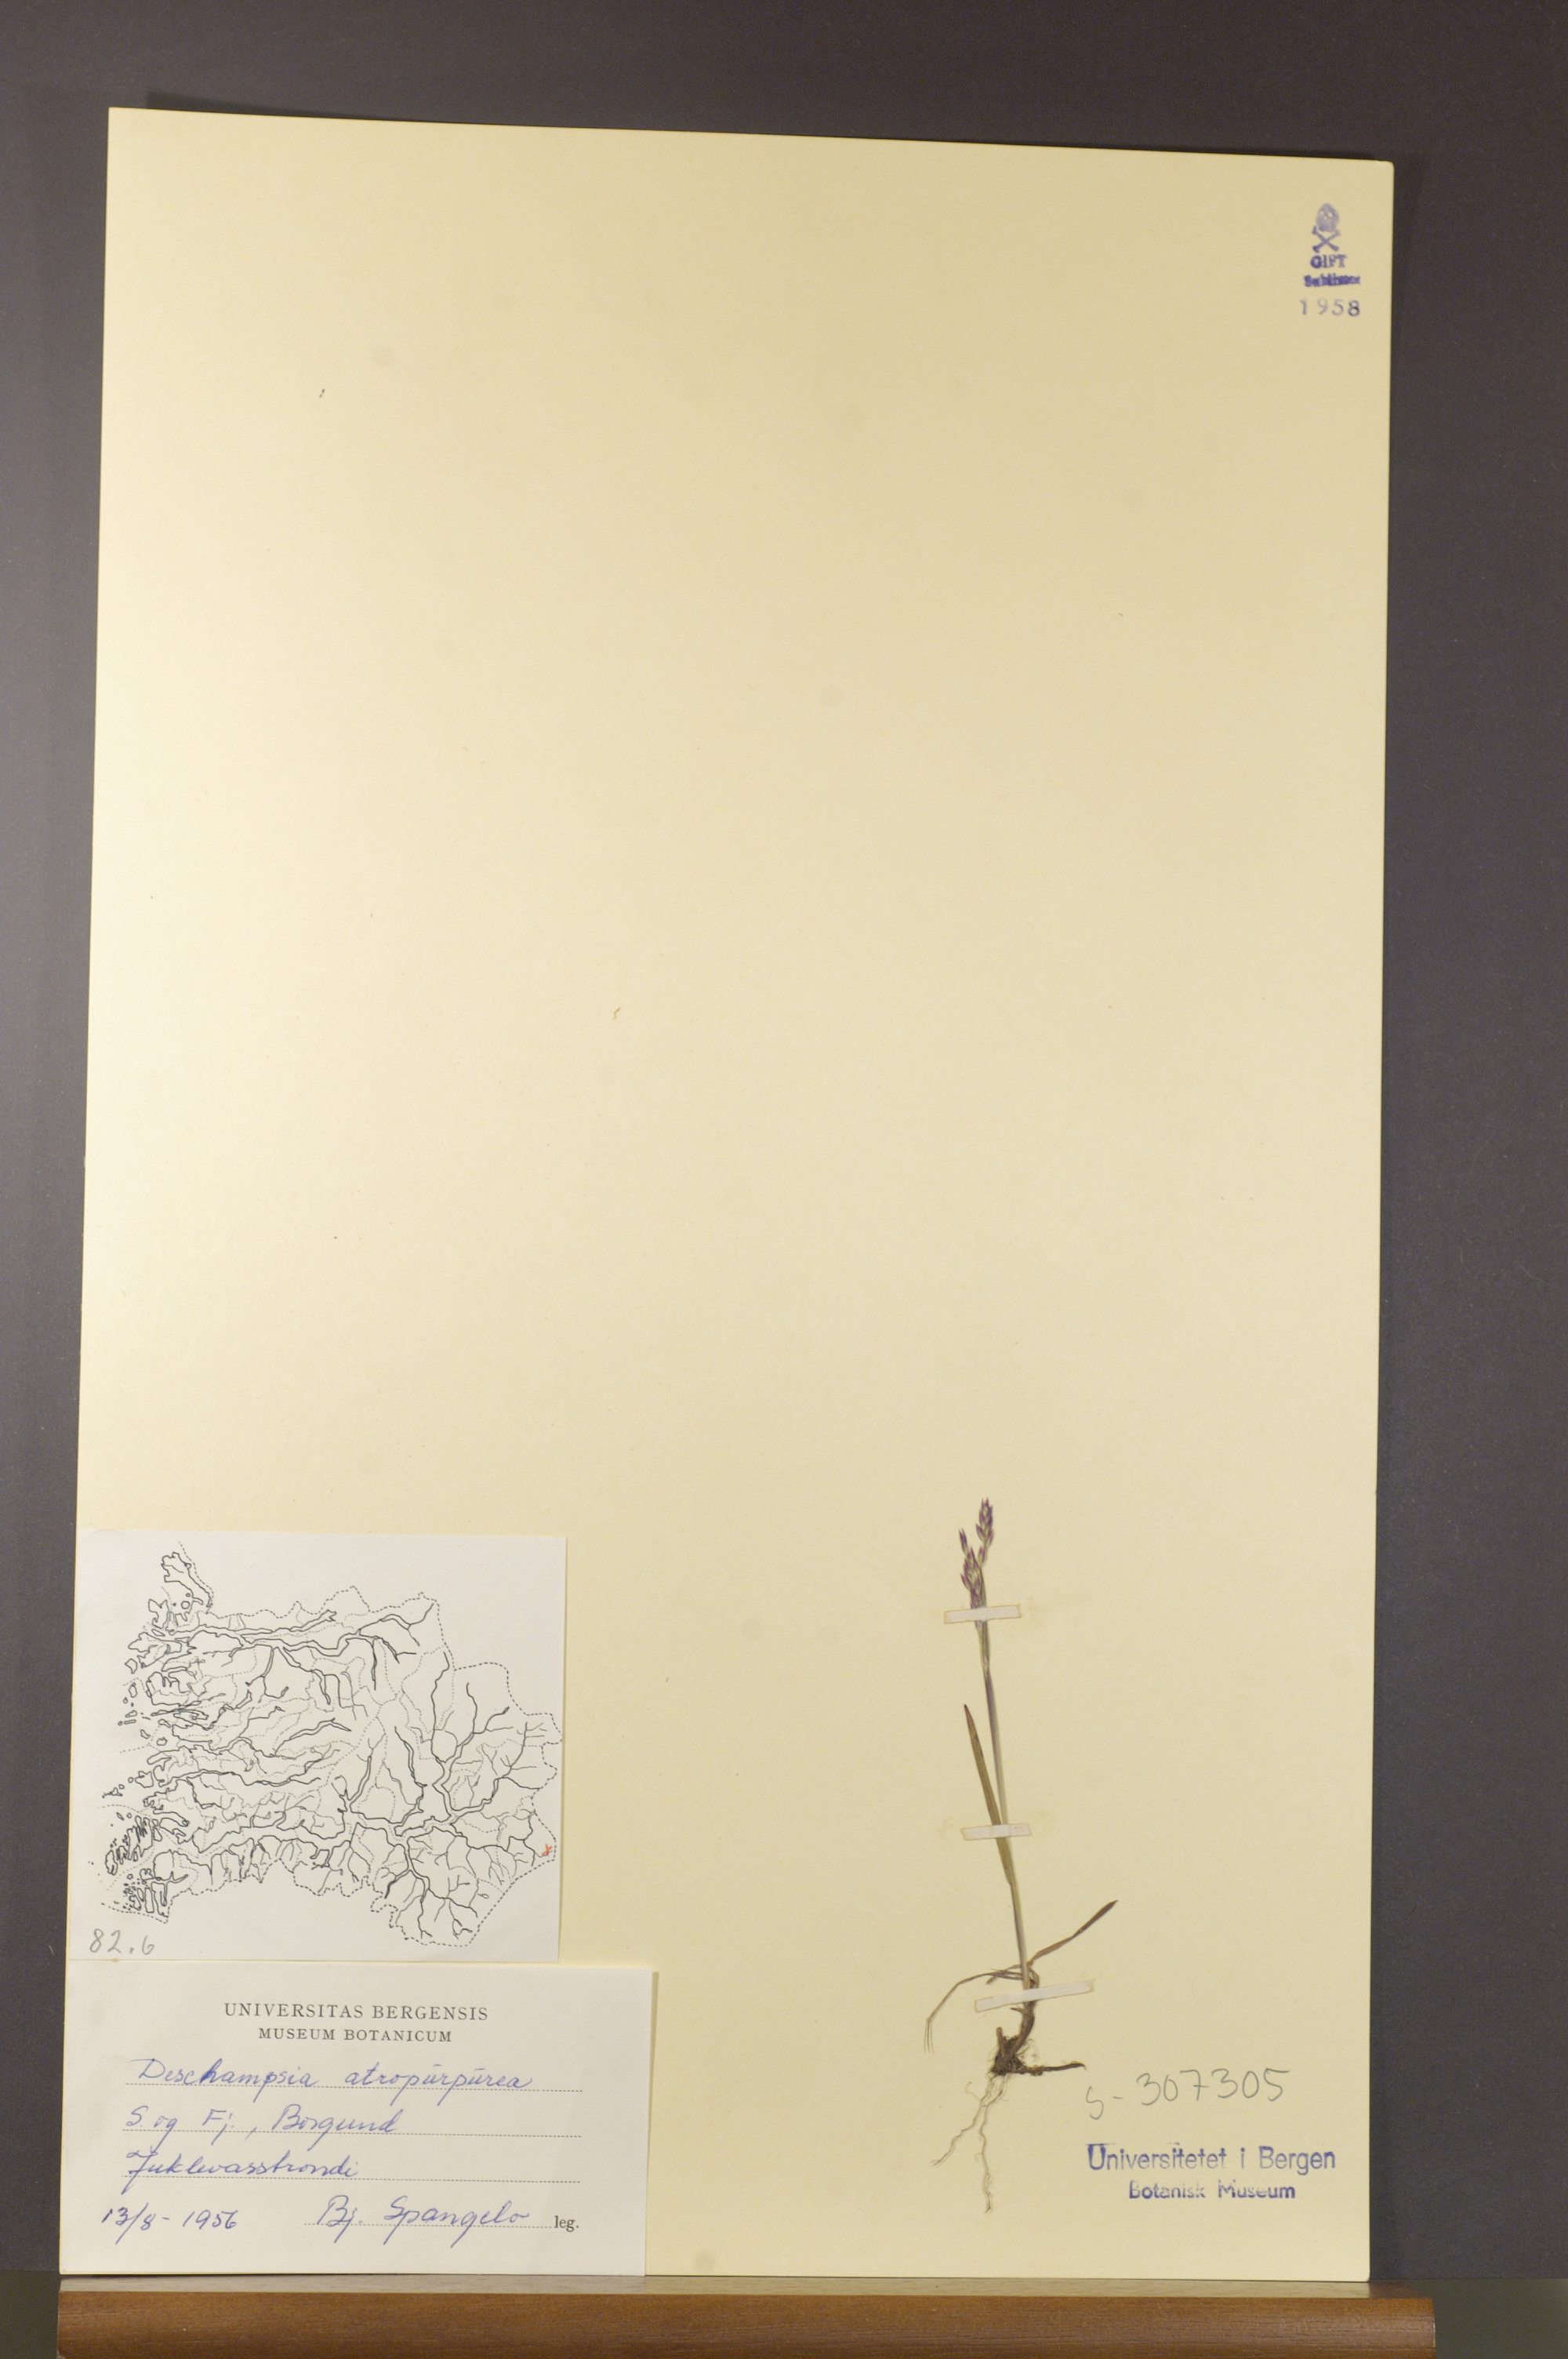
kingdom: Plantae
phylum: Tracheophyta
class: Liliopsida
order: Poales
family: Poaceae
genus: Vahlodea
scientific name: Vahlodea atropurpurea
